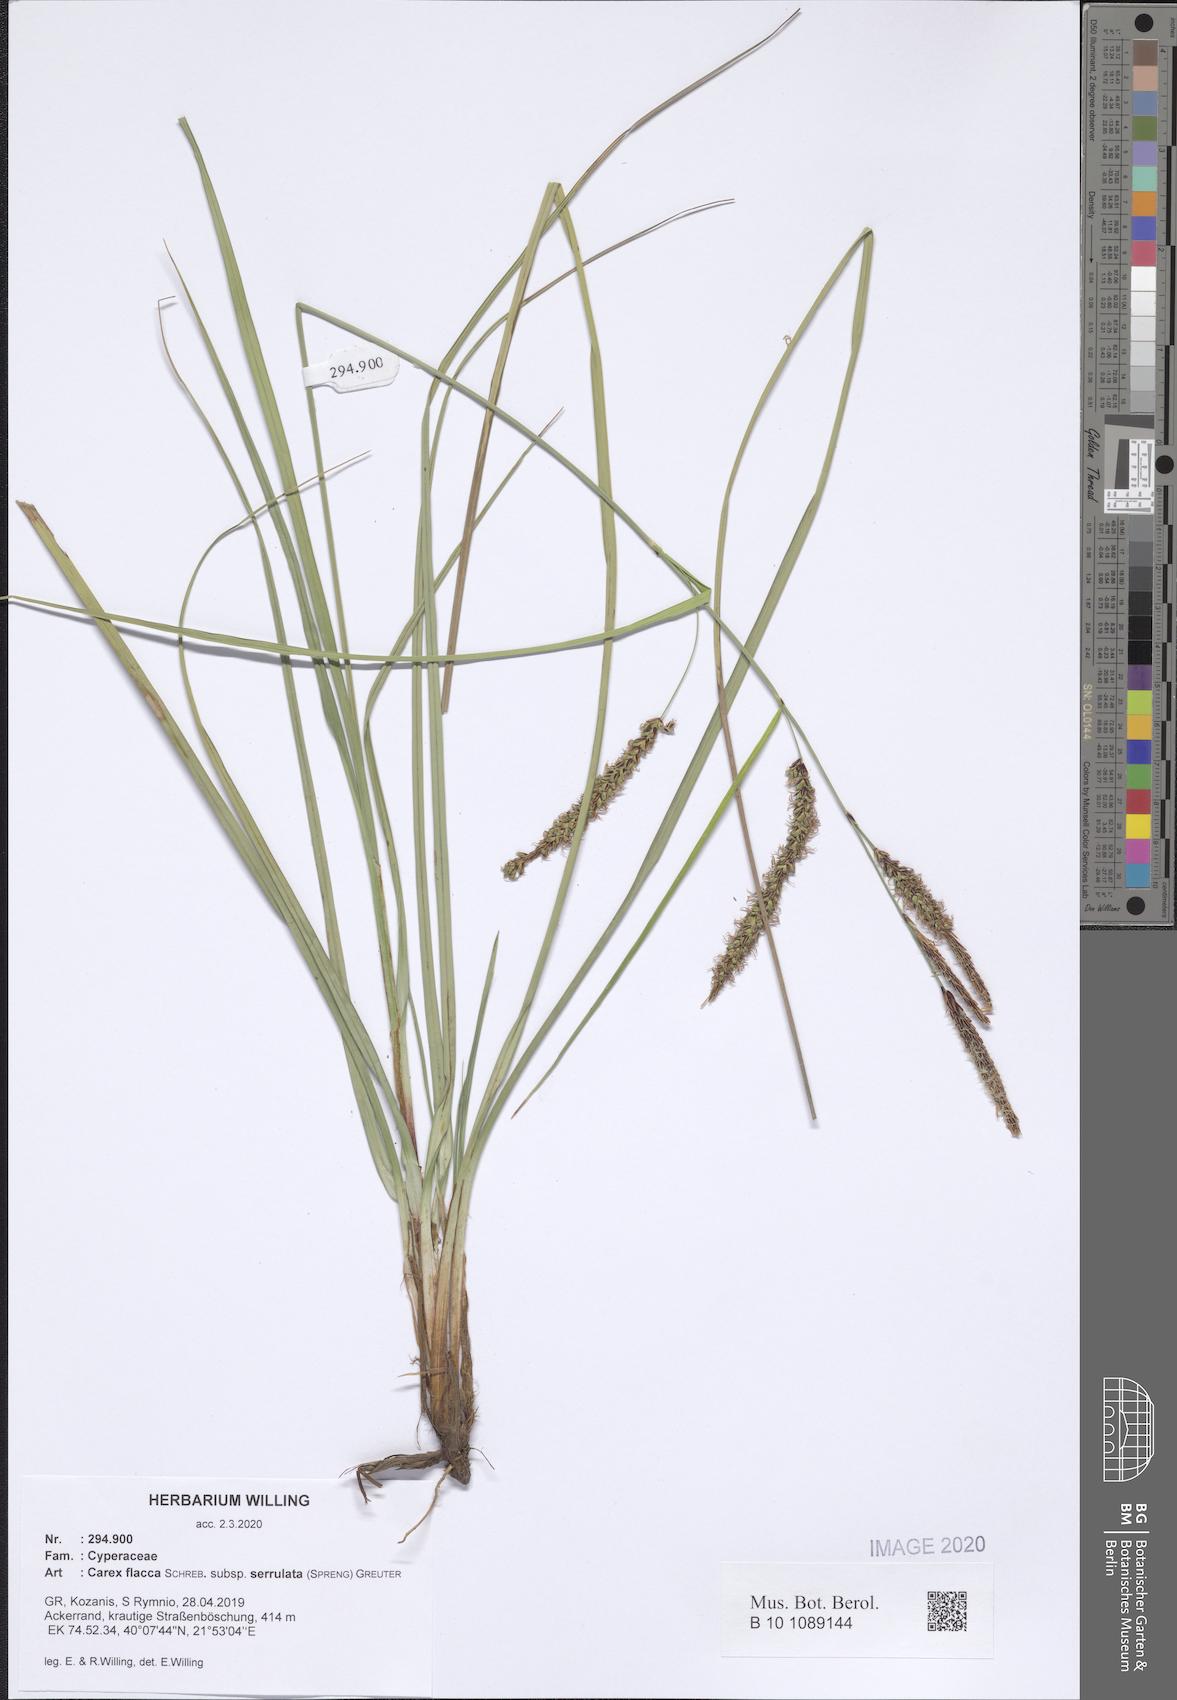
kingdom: Plantae
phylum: Tracheophyta
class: Liliopsida
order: Poales
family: Cyperaceae
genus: Carex
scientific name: Carex flacca
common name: Glaucous sedge
